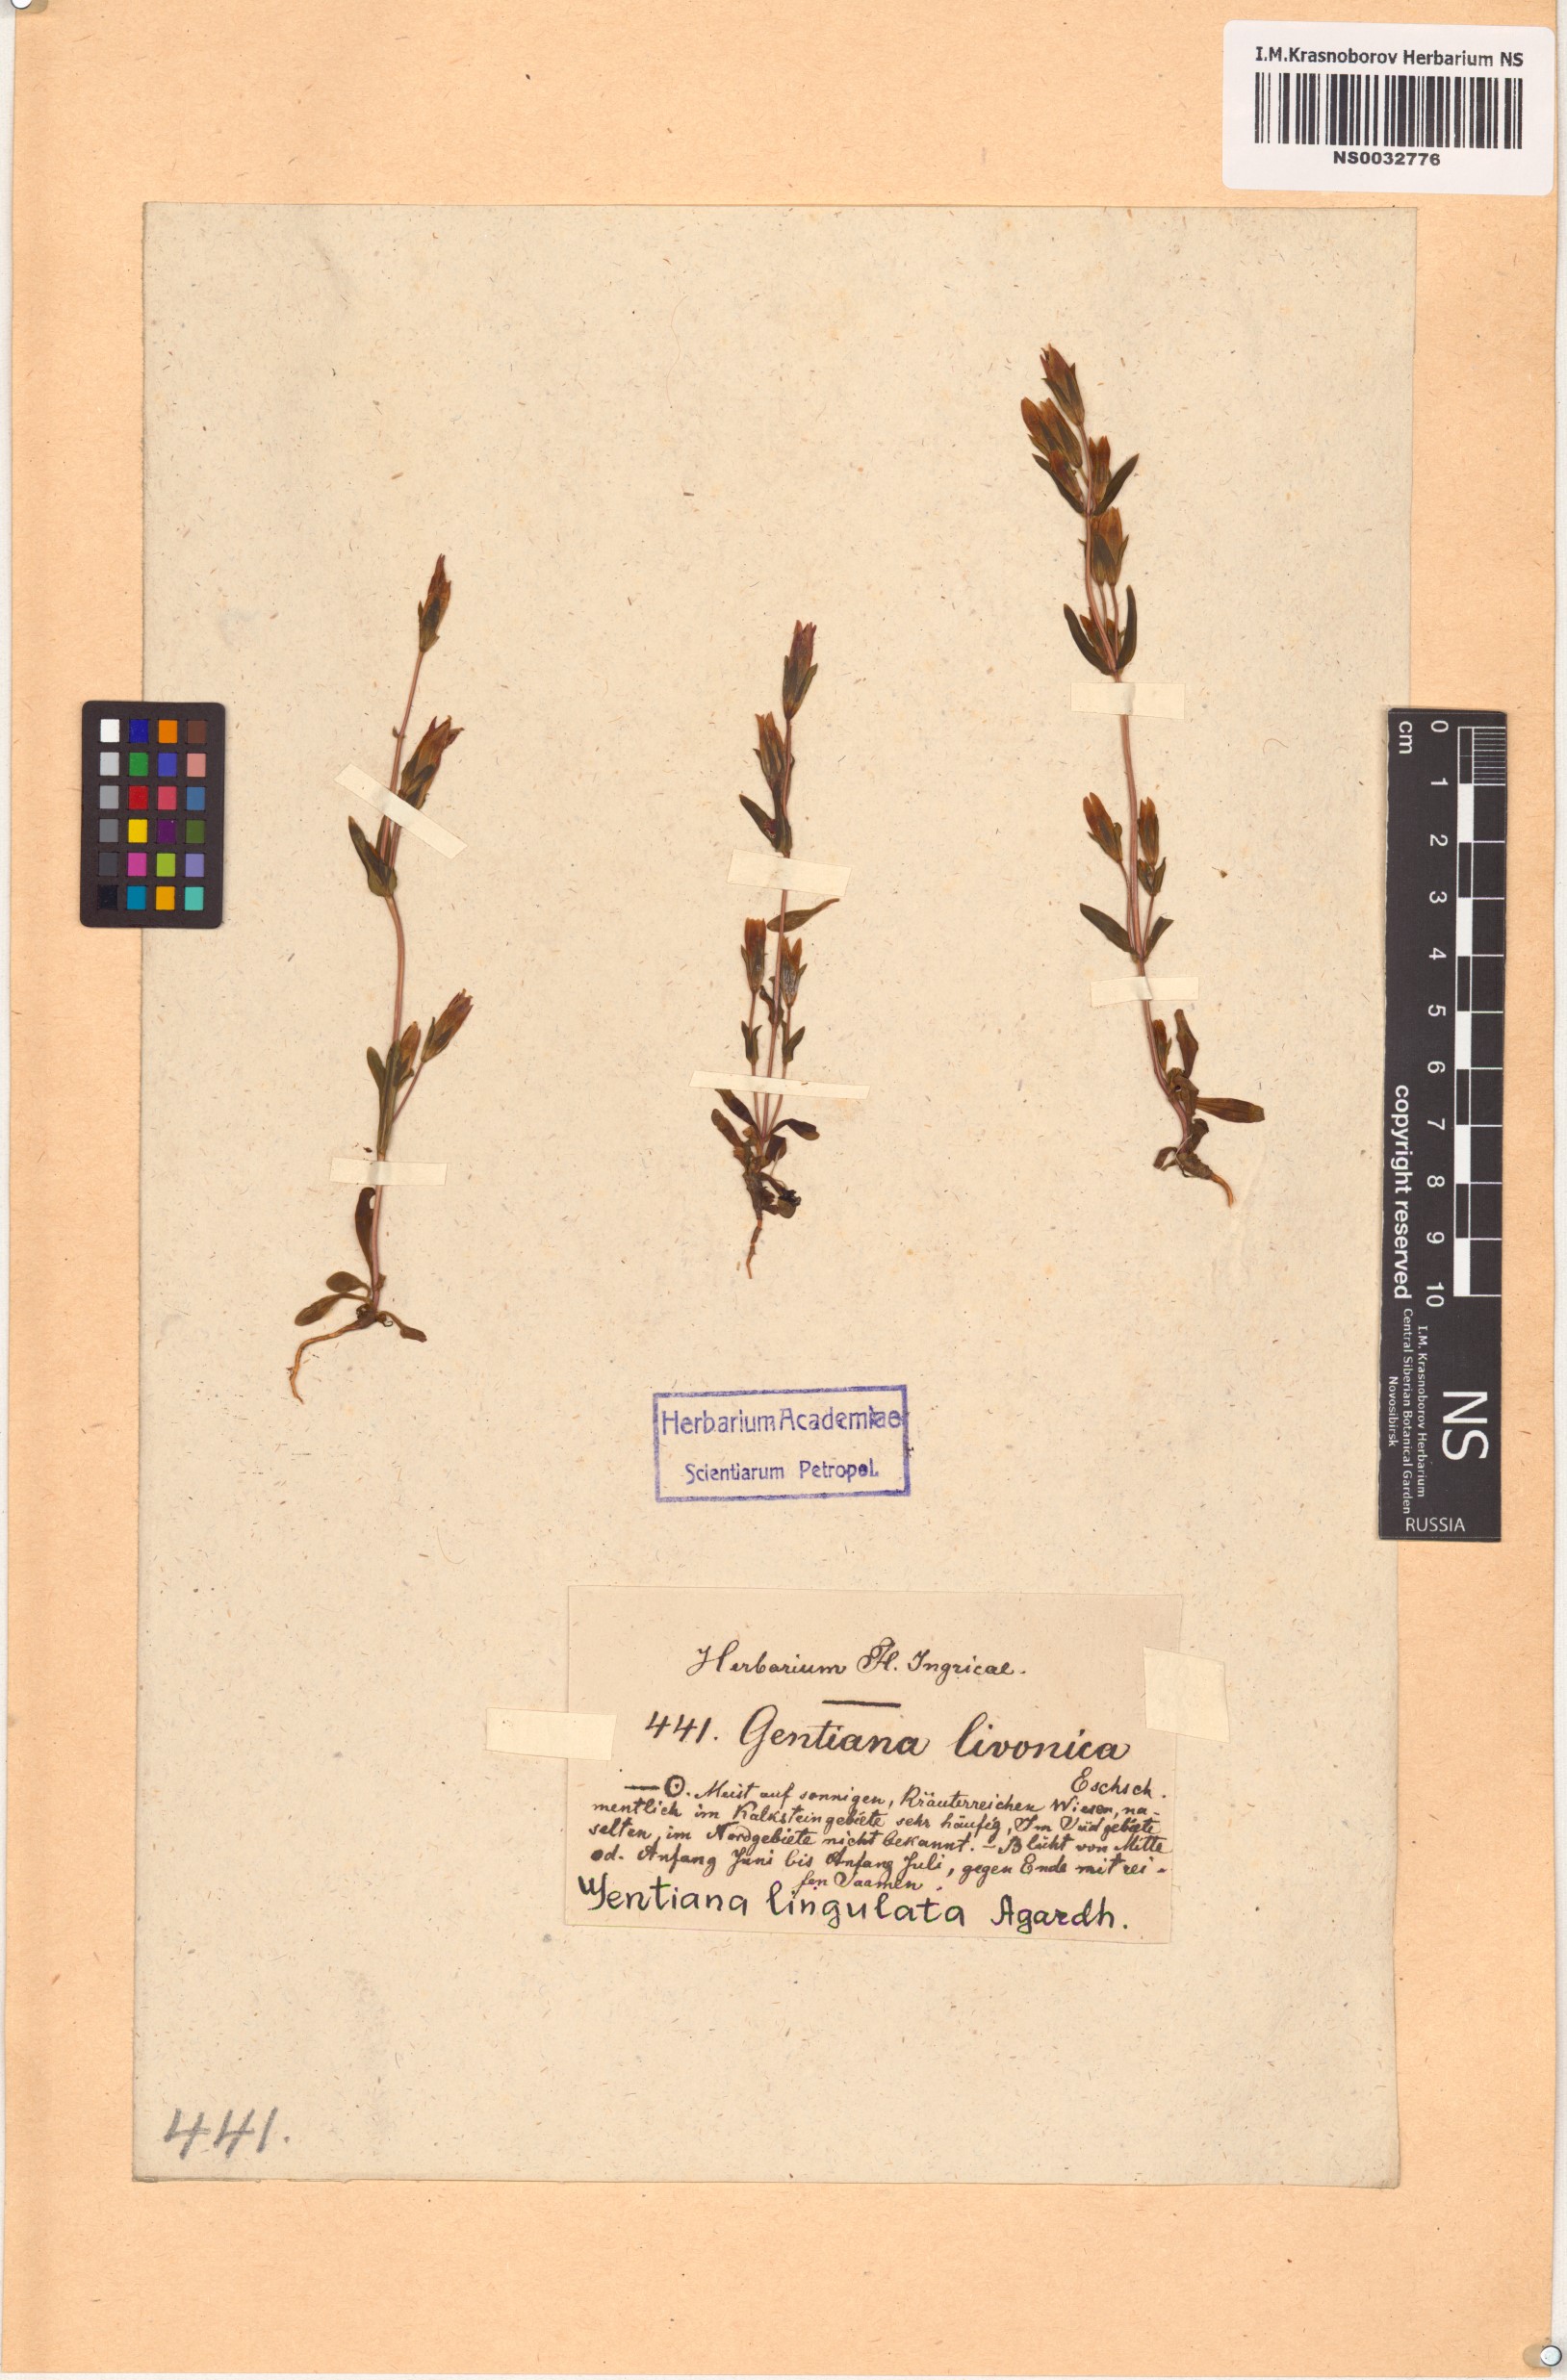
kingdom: Plantae
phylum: Tracheophyta
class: Magnoliopsida
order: Gentianales
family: Gentianaceae
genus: Gentianella
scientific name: Gentianella amarella
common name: Autumn gentian
